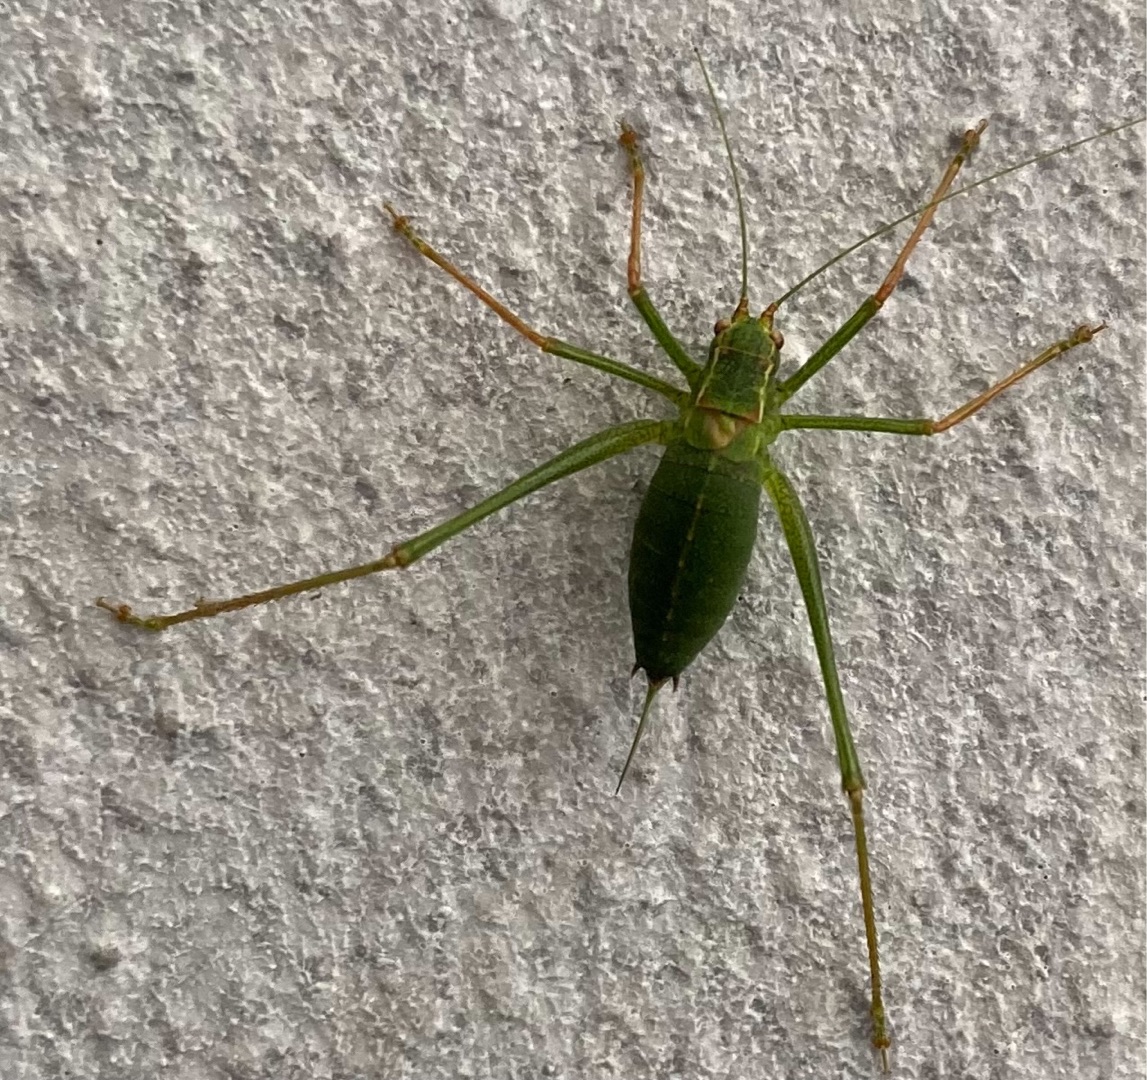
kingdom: Animalia
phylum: Arthropoda
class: Insecta
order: Orthoptera
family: Tettigoniidae
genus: Leptophyes
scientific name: Leptophyes punctatissima
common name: Krumknivgræshoppe
